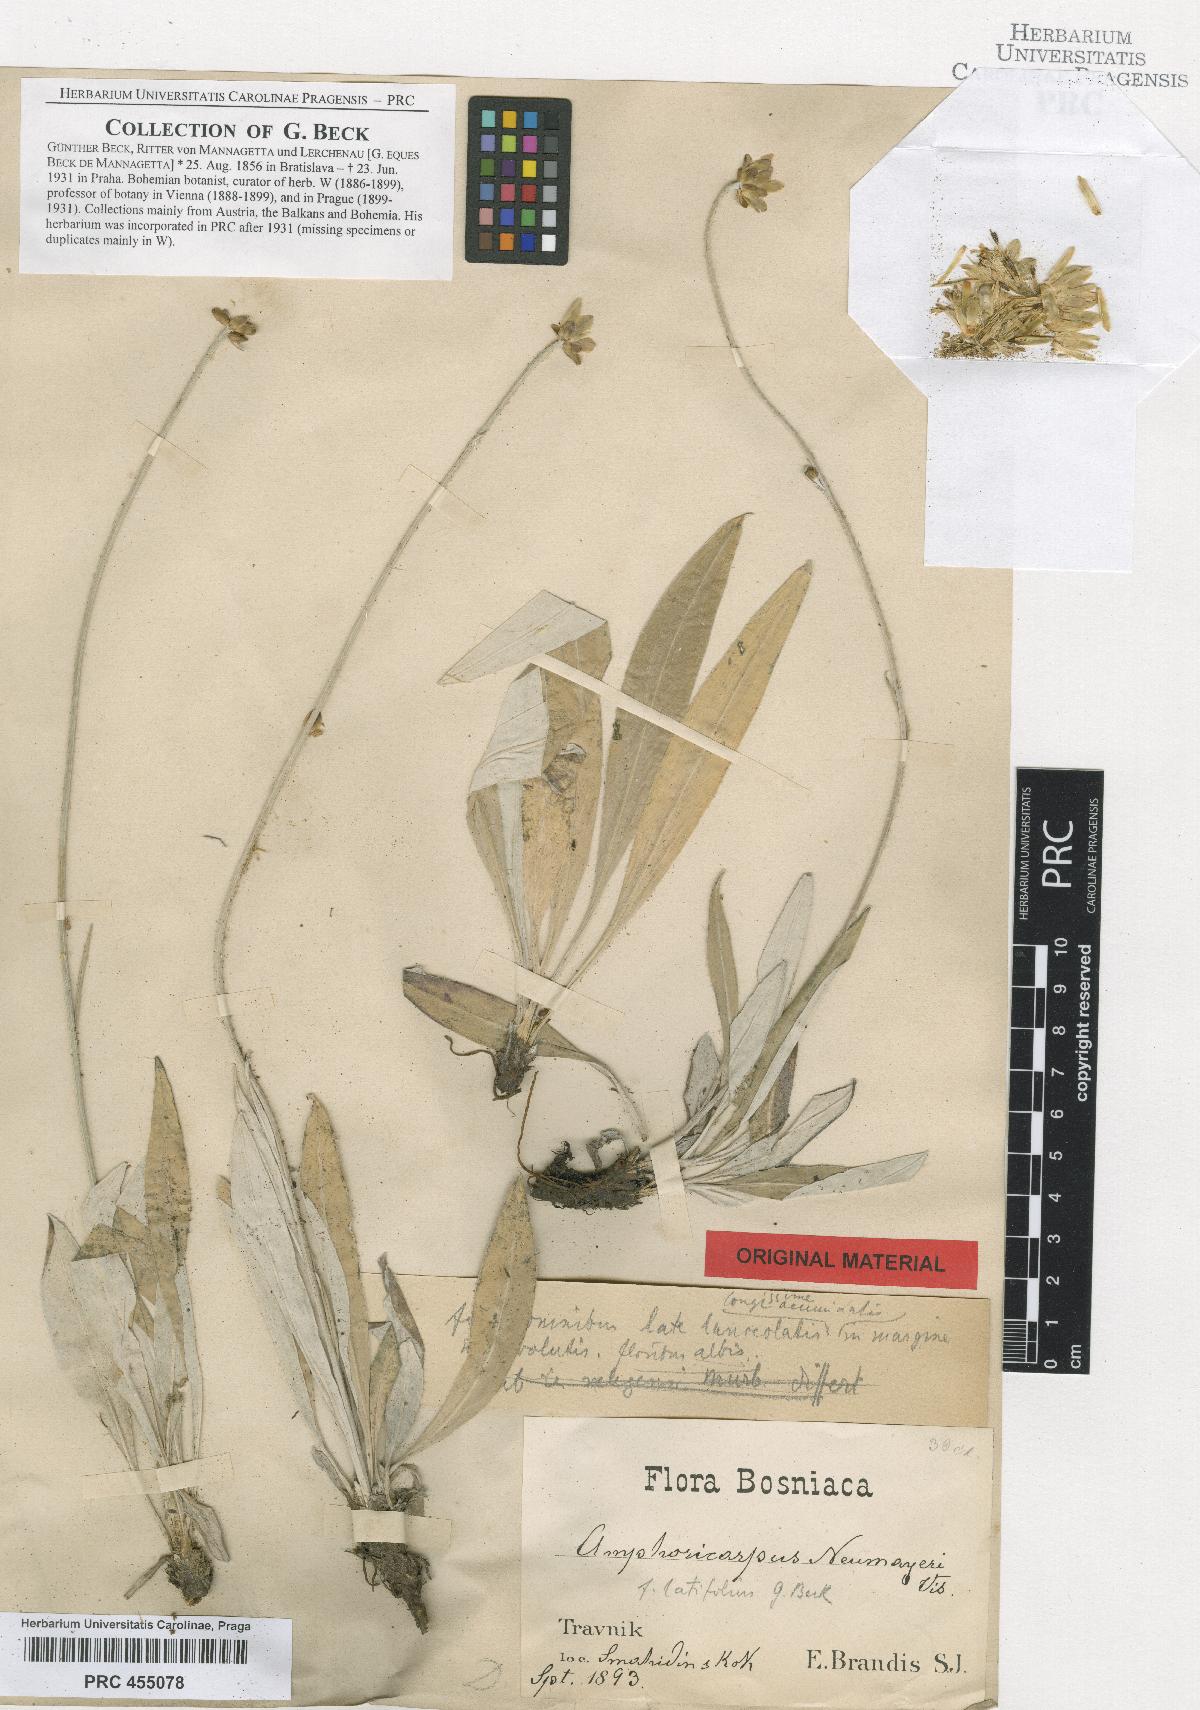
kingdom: Plantae
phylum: Tracheophyta
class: Magnoliopsida
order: Asterales
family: Asteraceae
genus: Amphoricarpos
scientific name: Amphoricarpos neumayerianus
